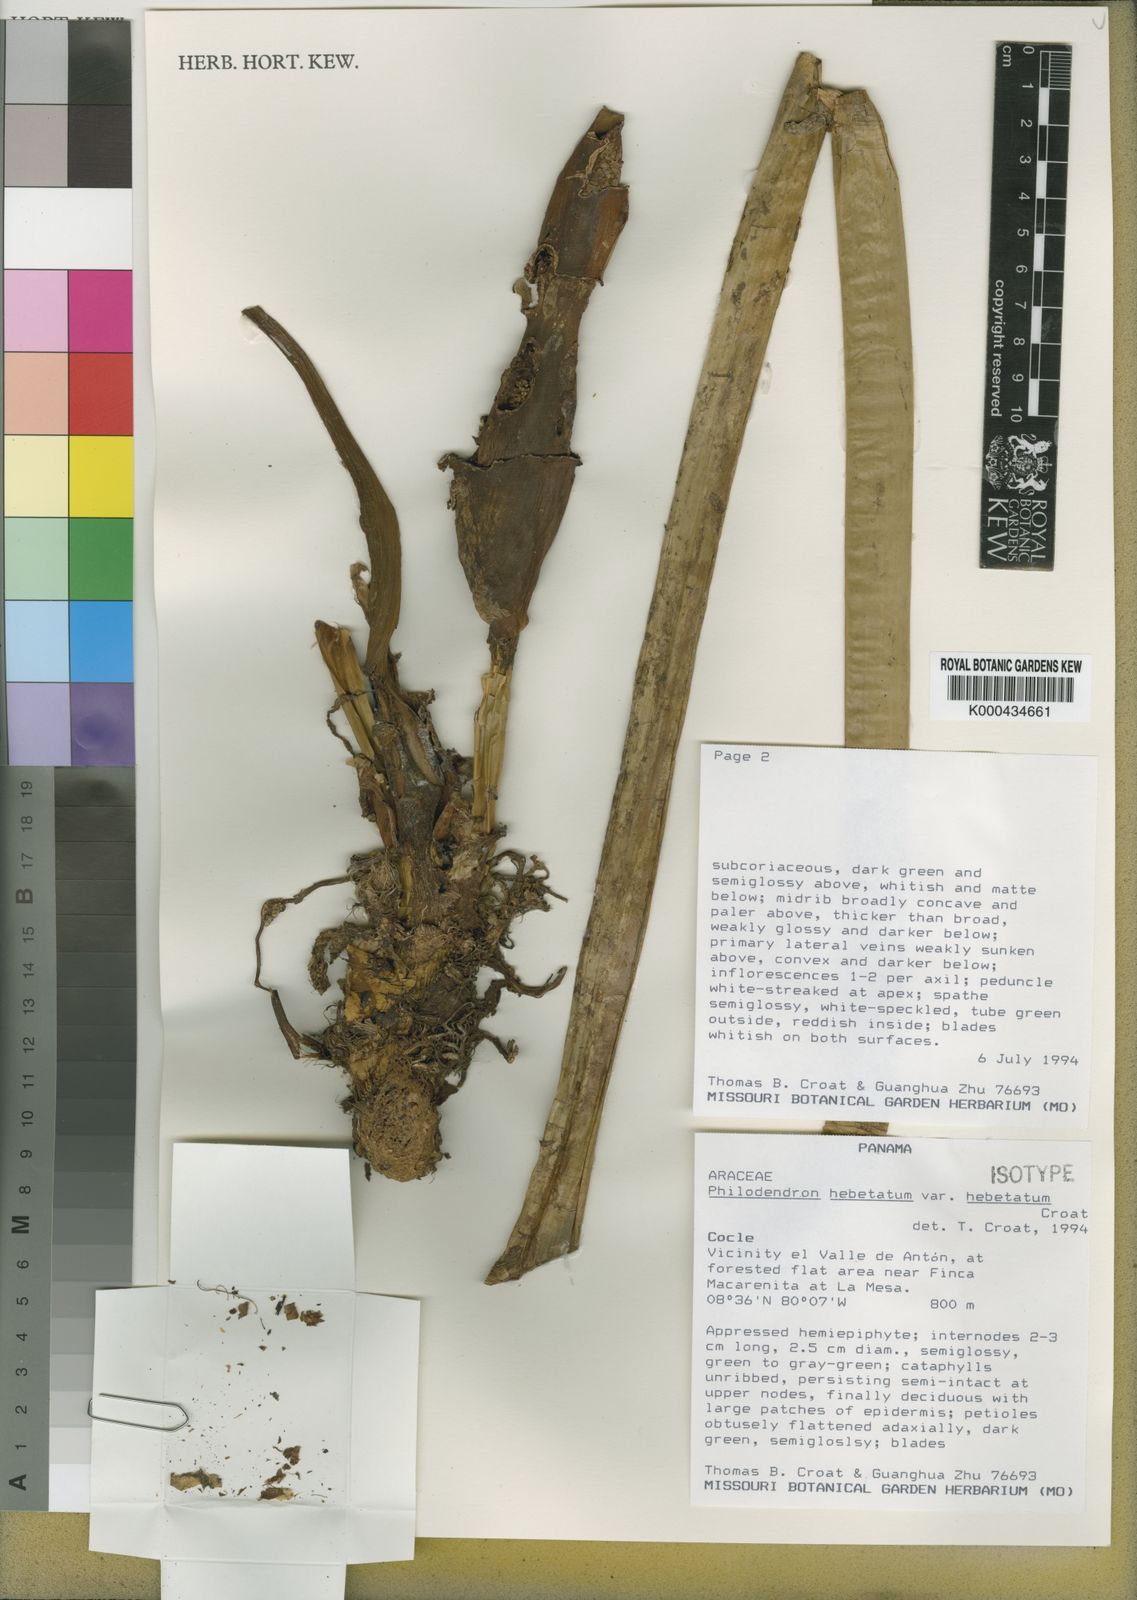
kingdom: Plantae
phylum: Tracheophyta
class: Liliopsida
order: Alismatales
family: Araceae
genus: Philodendron
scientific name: Philodendron hebetatum
